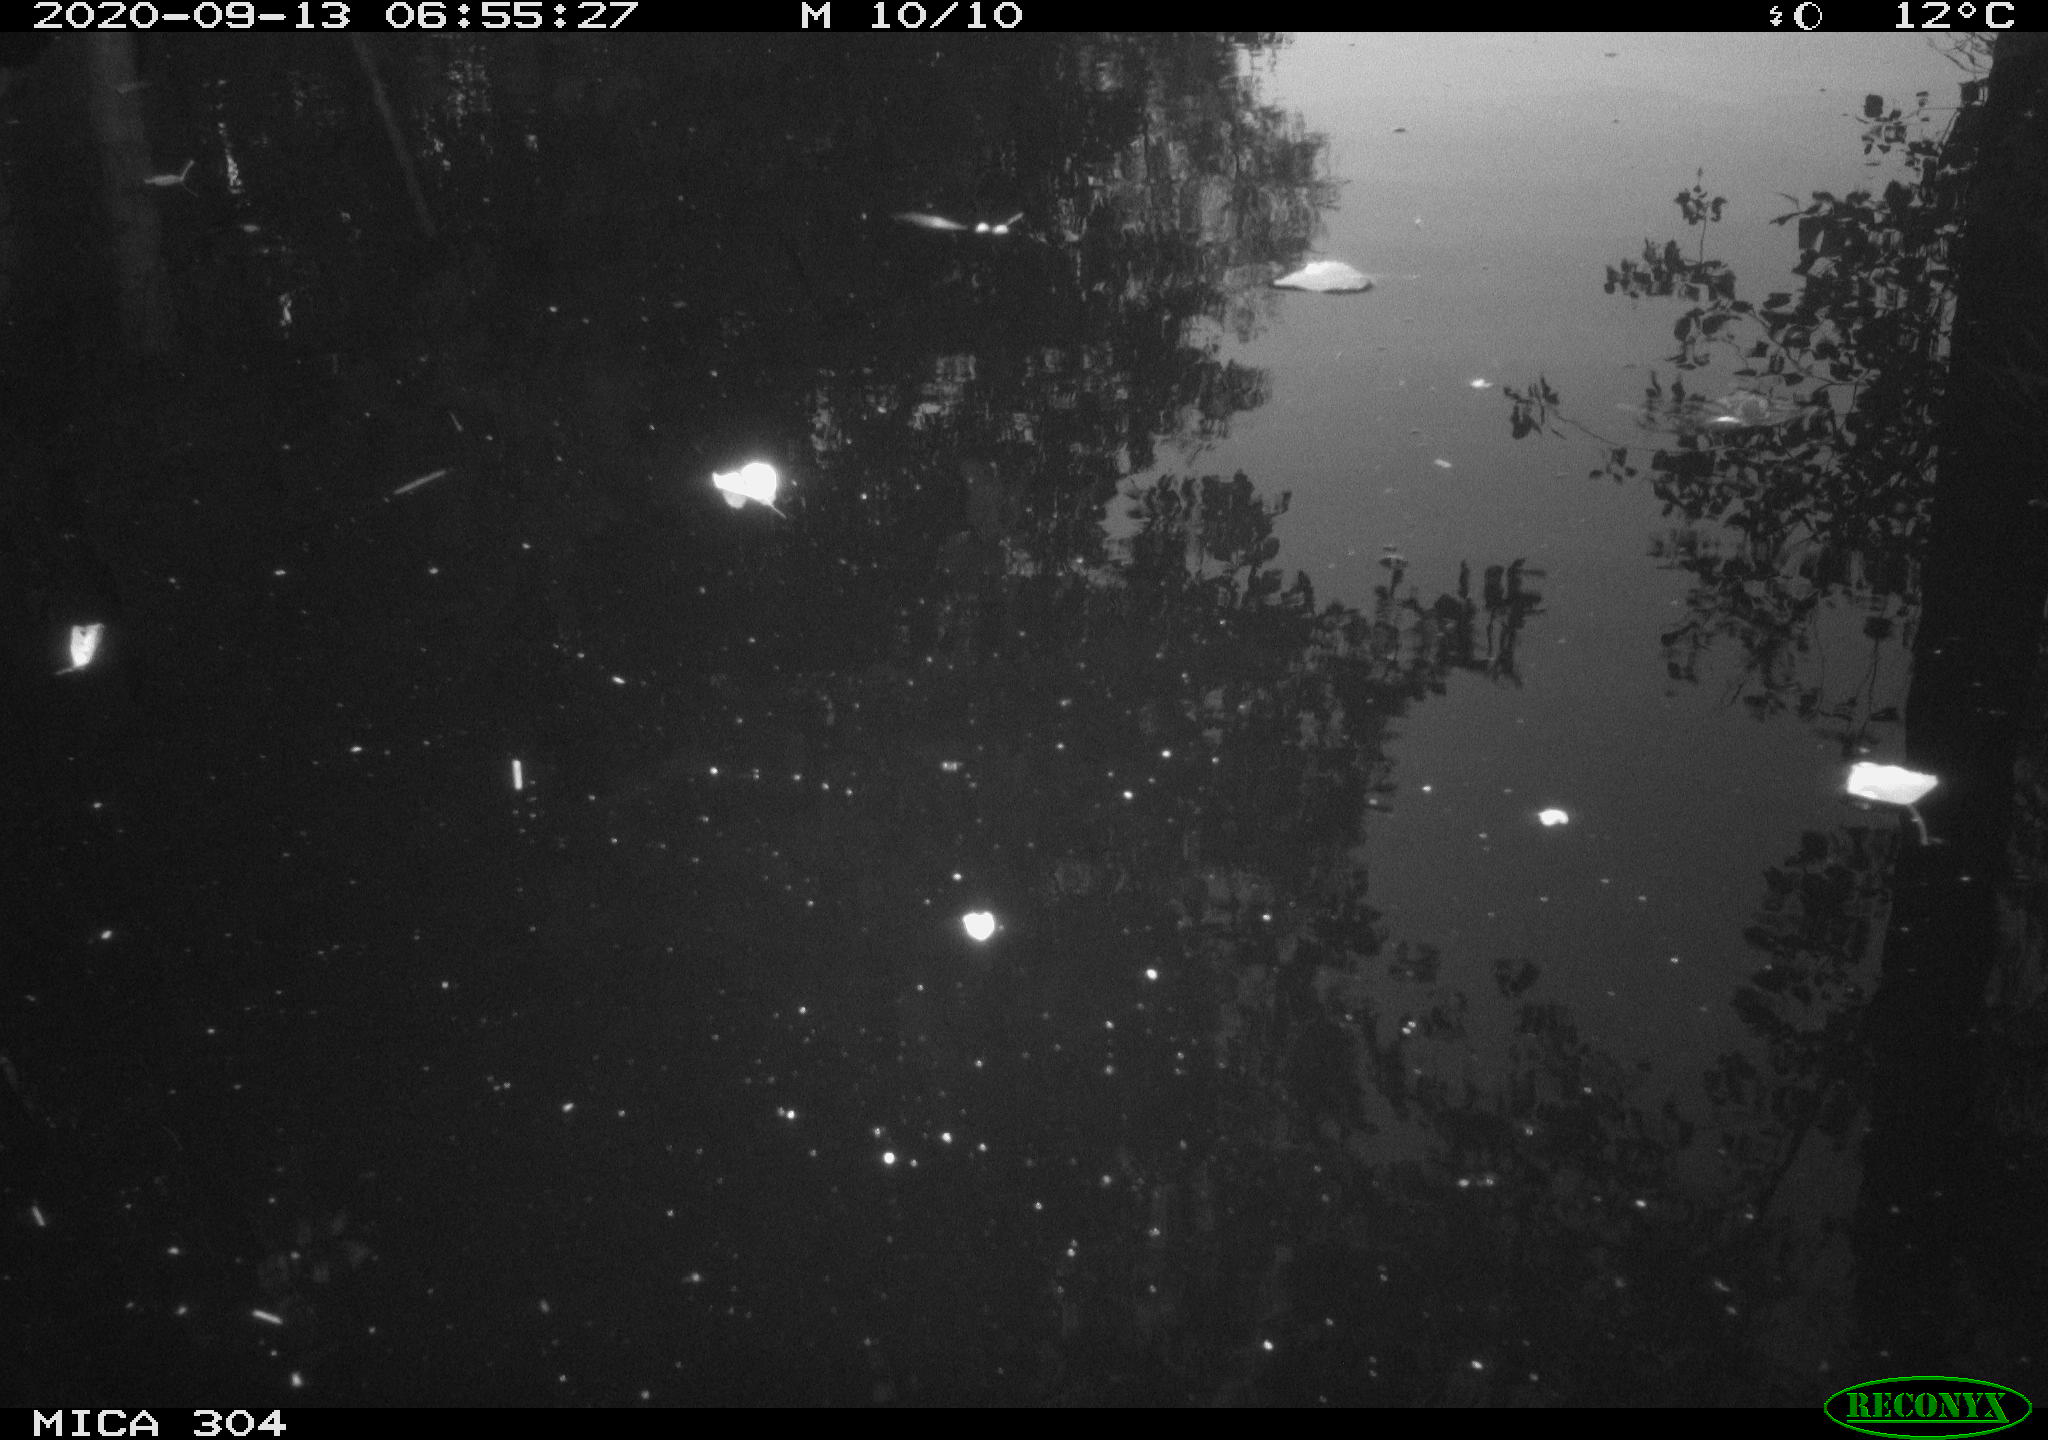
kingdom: Animalia
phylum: Chordata
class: Aves
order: Gruiformes
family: Rallidae
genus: Fulica
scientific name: Fulica atra
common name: Eurasian coot
